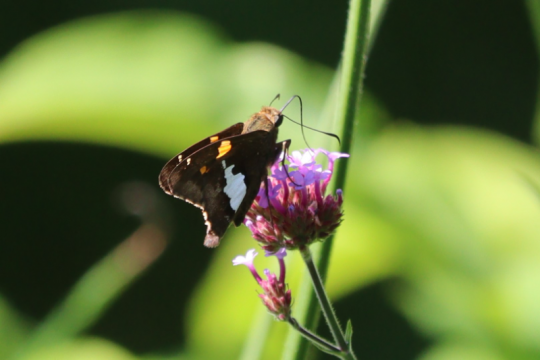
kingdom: Animalia
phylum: Arthropoda
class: Insecta
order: Lepidoptera
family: Hesperiidae
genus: Epargyreus
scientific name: Epargyreus clarus
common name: Silver-spotted Skipper
